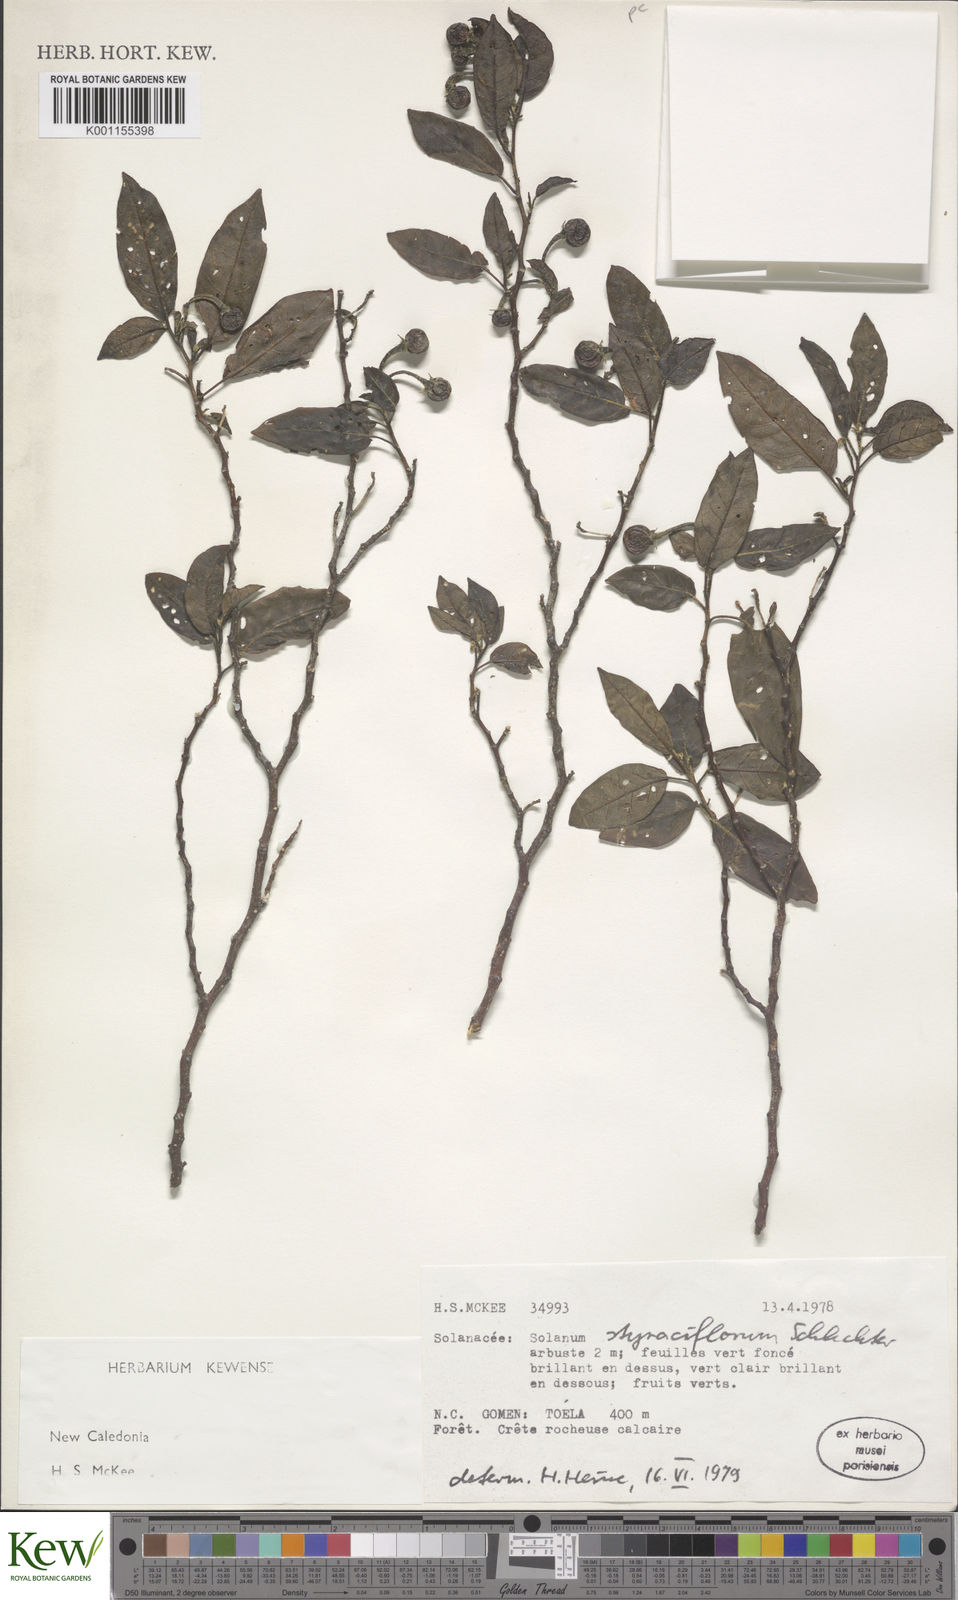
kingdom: Plantae
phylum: Tracheophyta
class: Magnoliopsida
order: Solanales
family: Solanaceae
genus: Solanum
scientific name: Solanum artense
